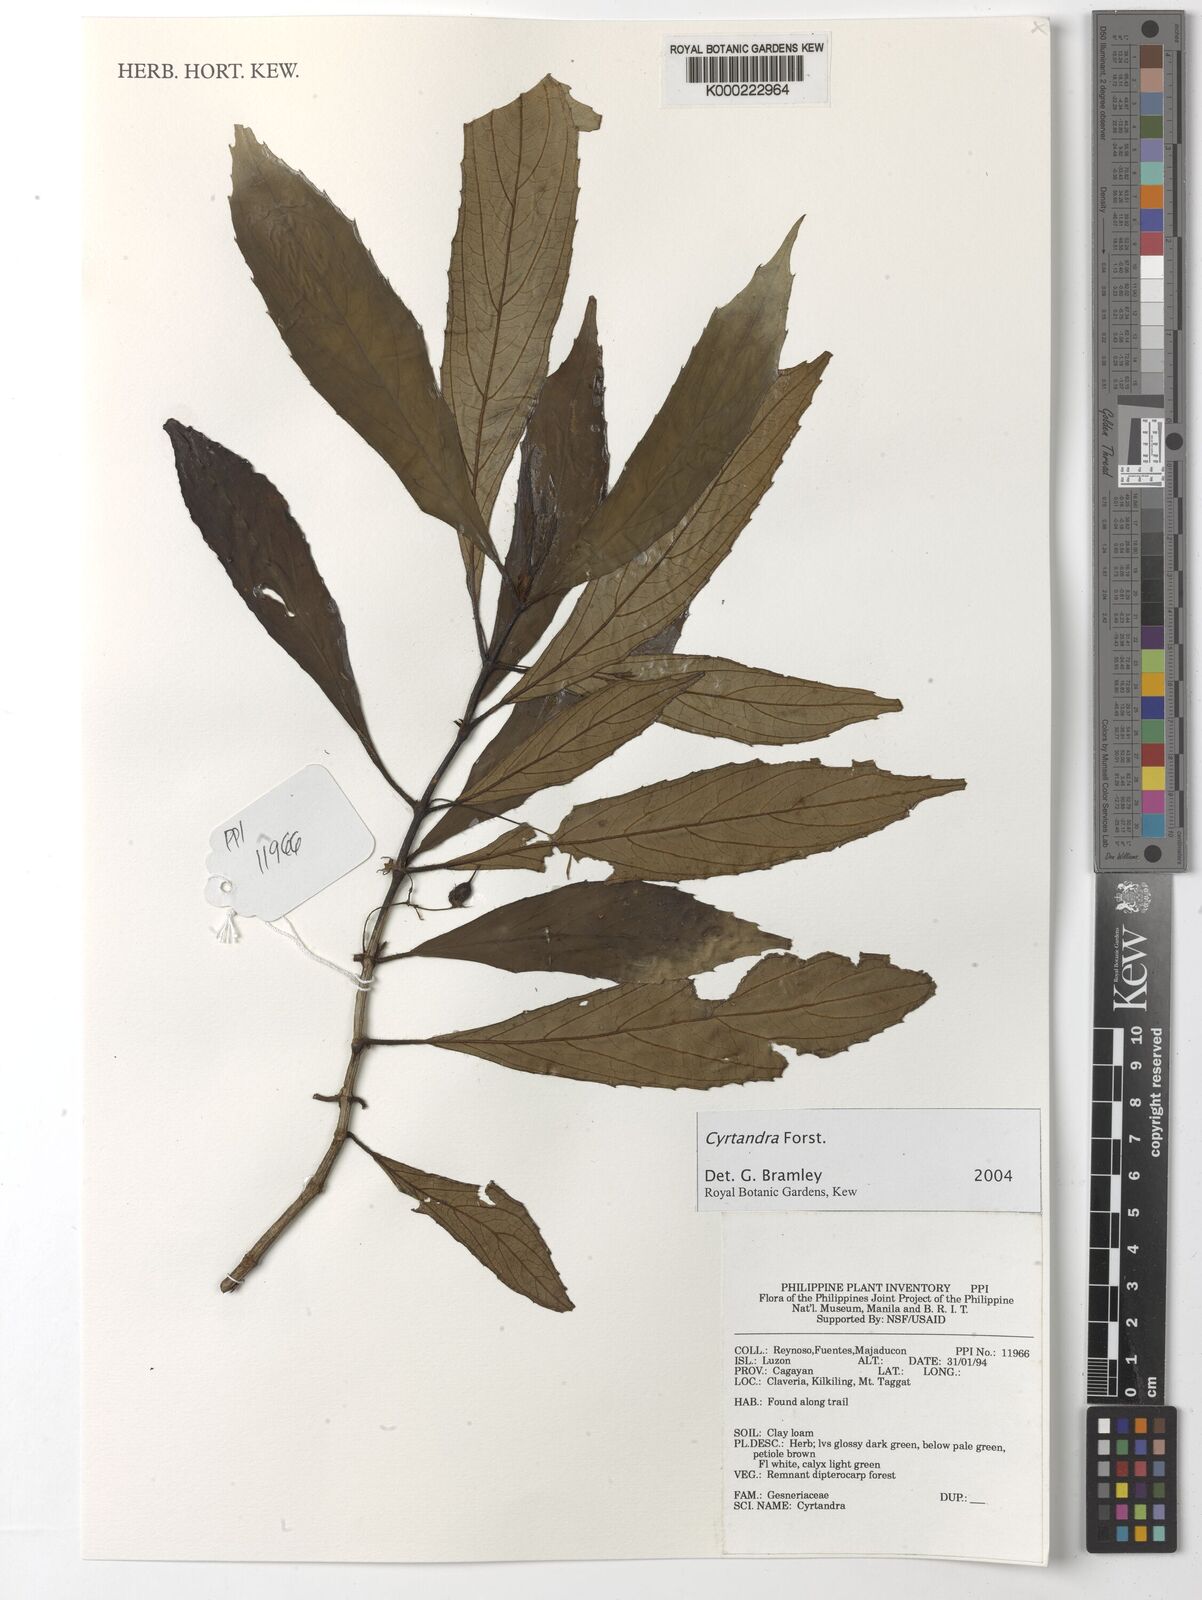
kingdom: Plantae
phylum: Tracheophyta
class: Magnoliopsida
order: Lamiales
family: Gesneriaceae
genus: Cyrtandra
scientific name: Cyrtandra
